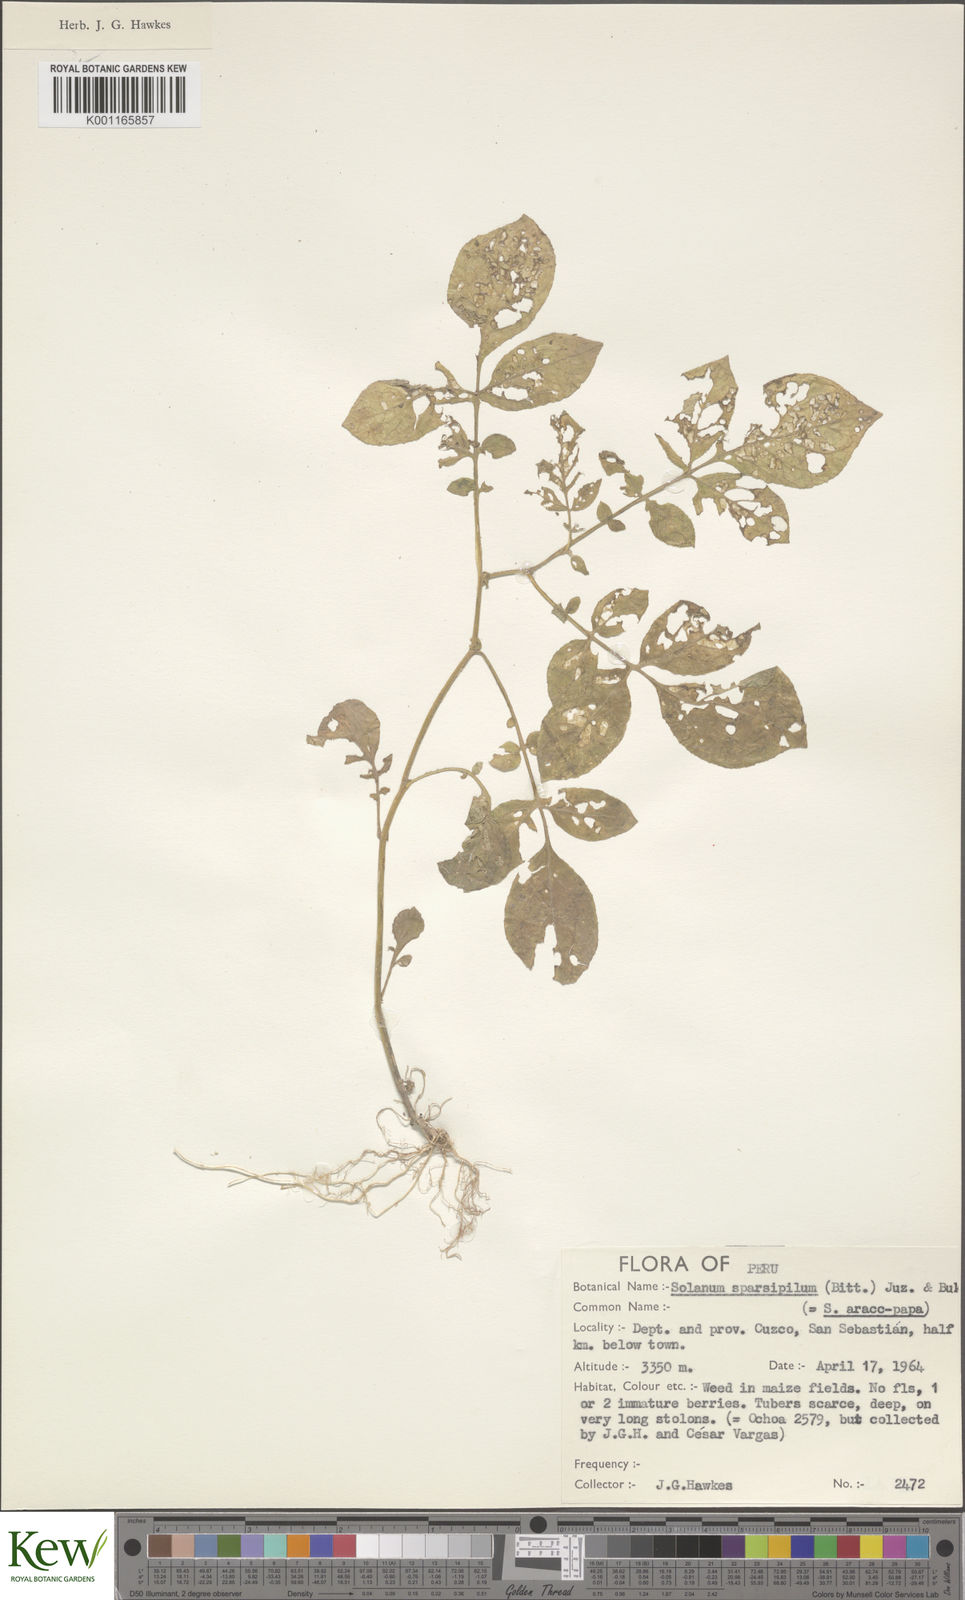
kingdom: Plantae
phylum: Tracheophyta
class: Magnoliopsida
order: Solanales
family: Solanaceae
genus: Solanum
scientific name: Solanum brevicaule
